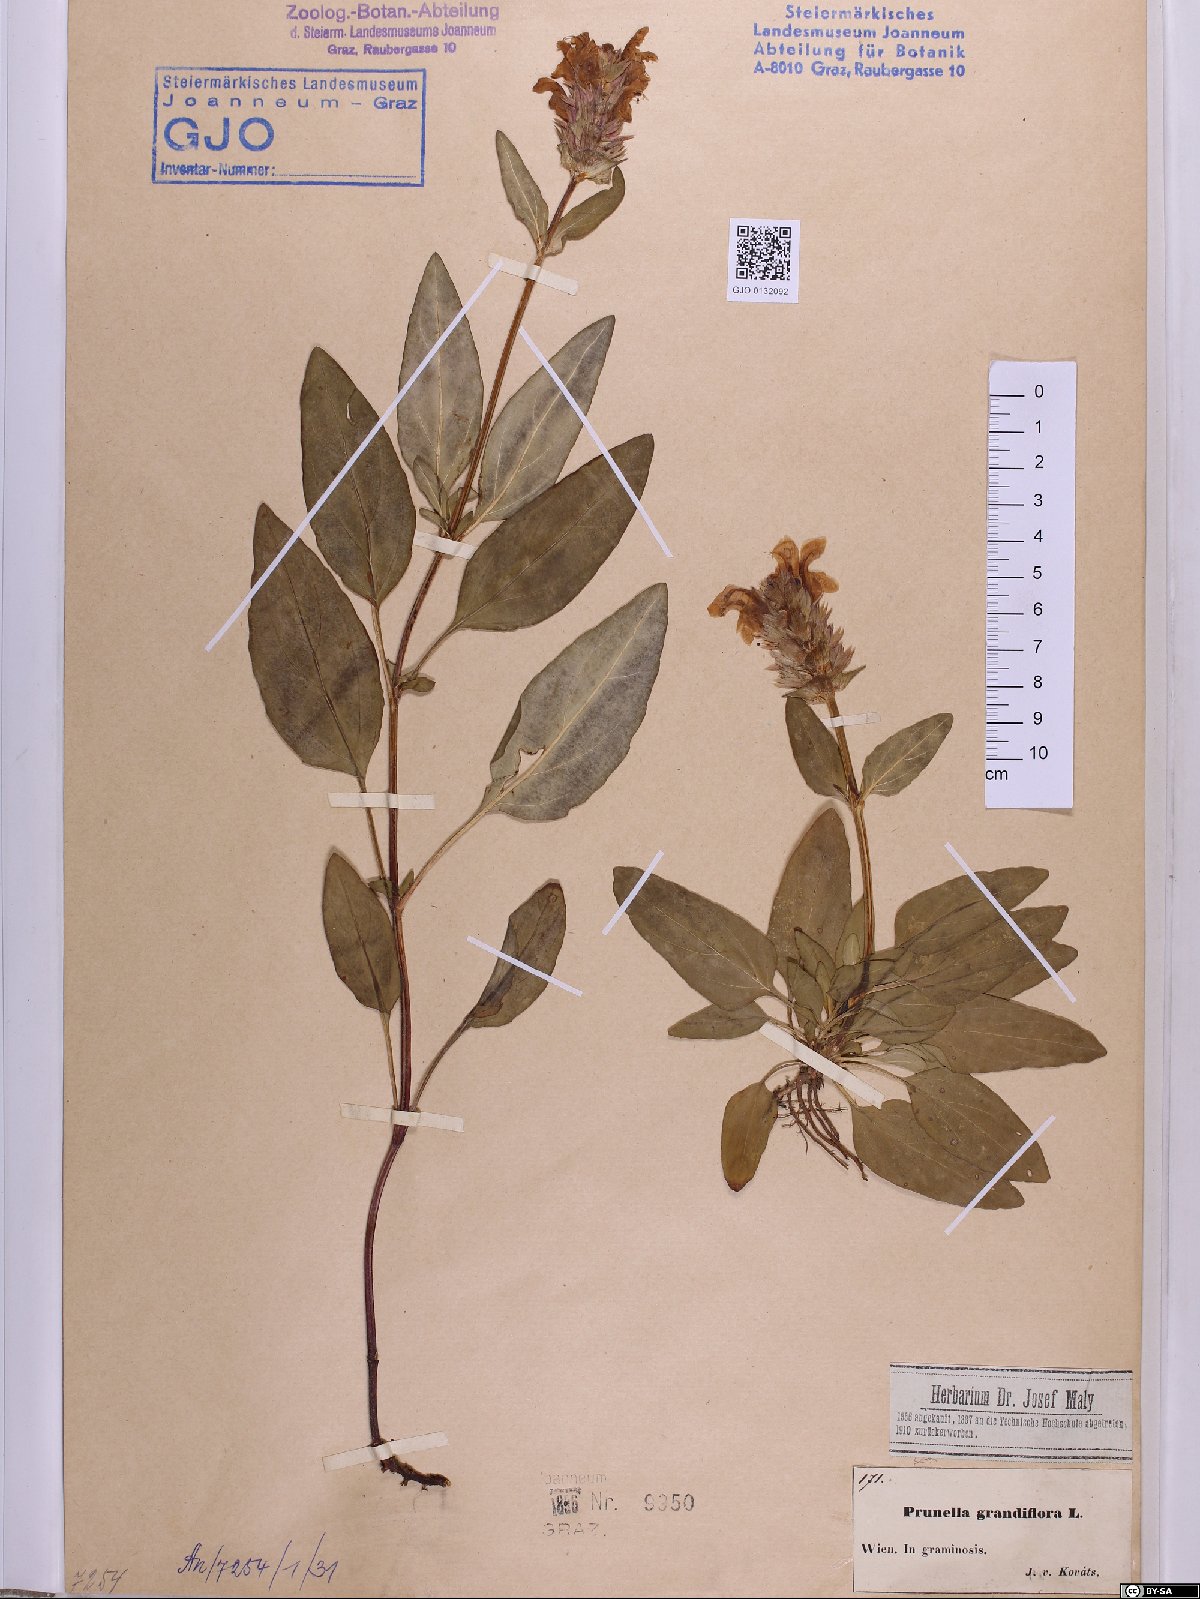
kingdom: Plantae
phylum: Tracheophyta
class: Magnoliopsida
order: Lamiales
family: Lamiaceae
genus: Prunella
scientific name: Prunella grandiflora
